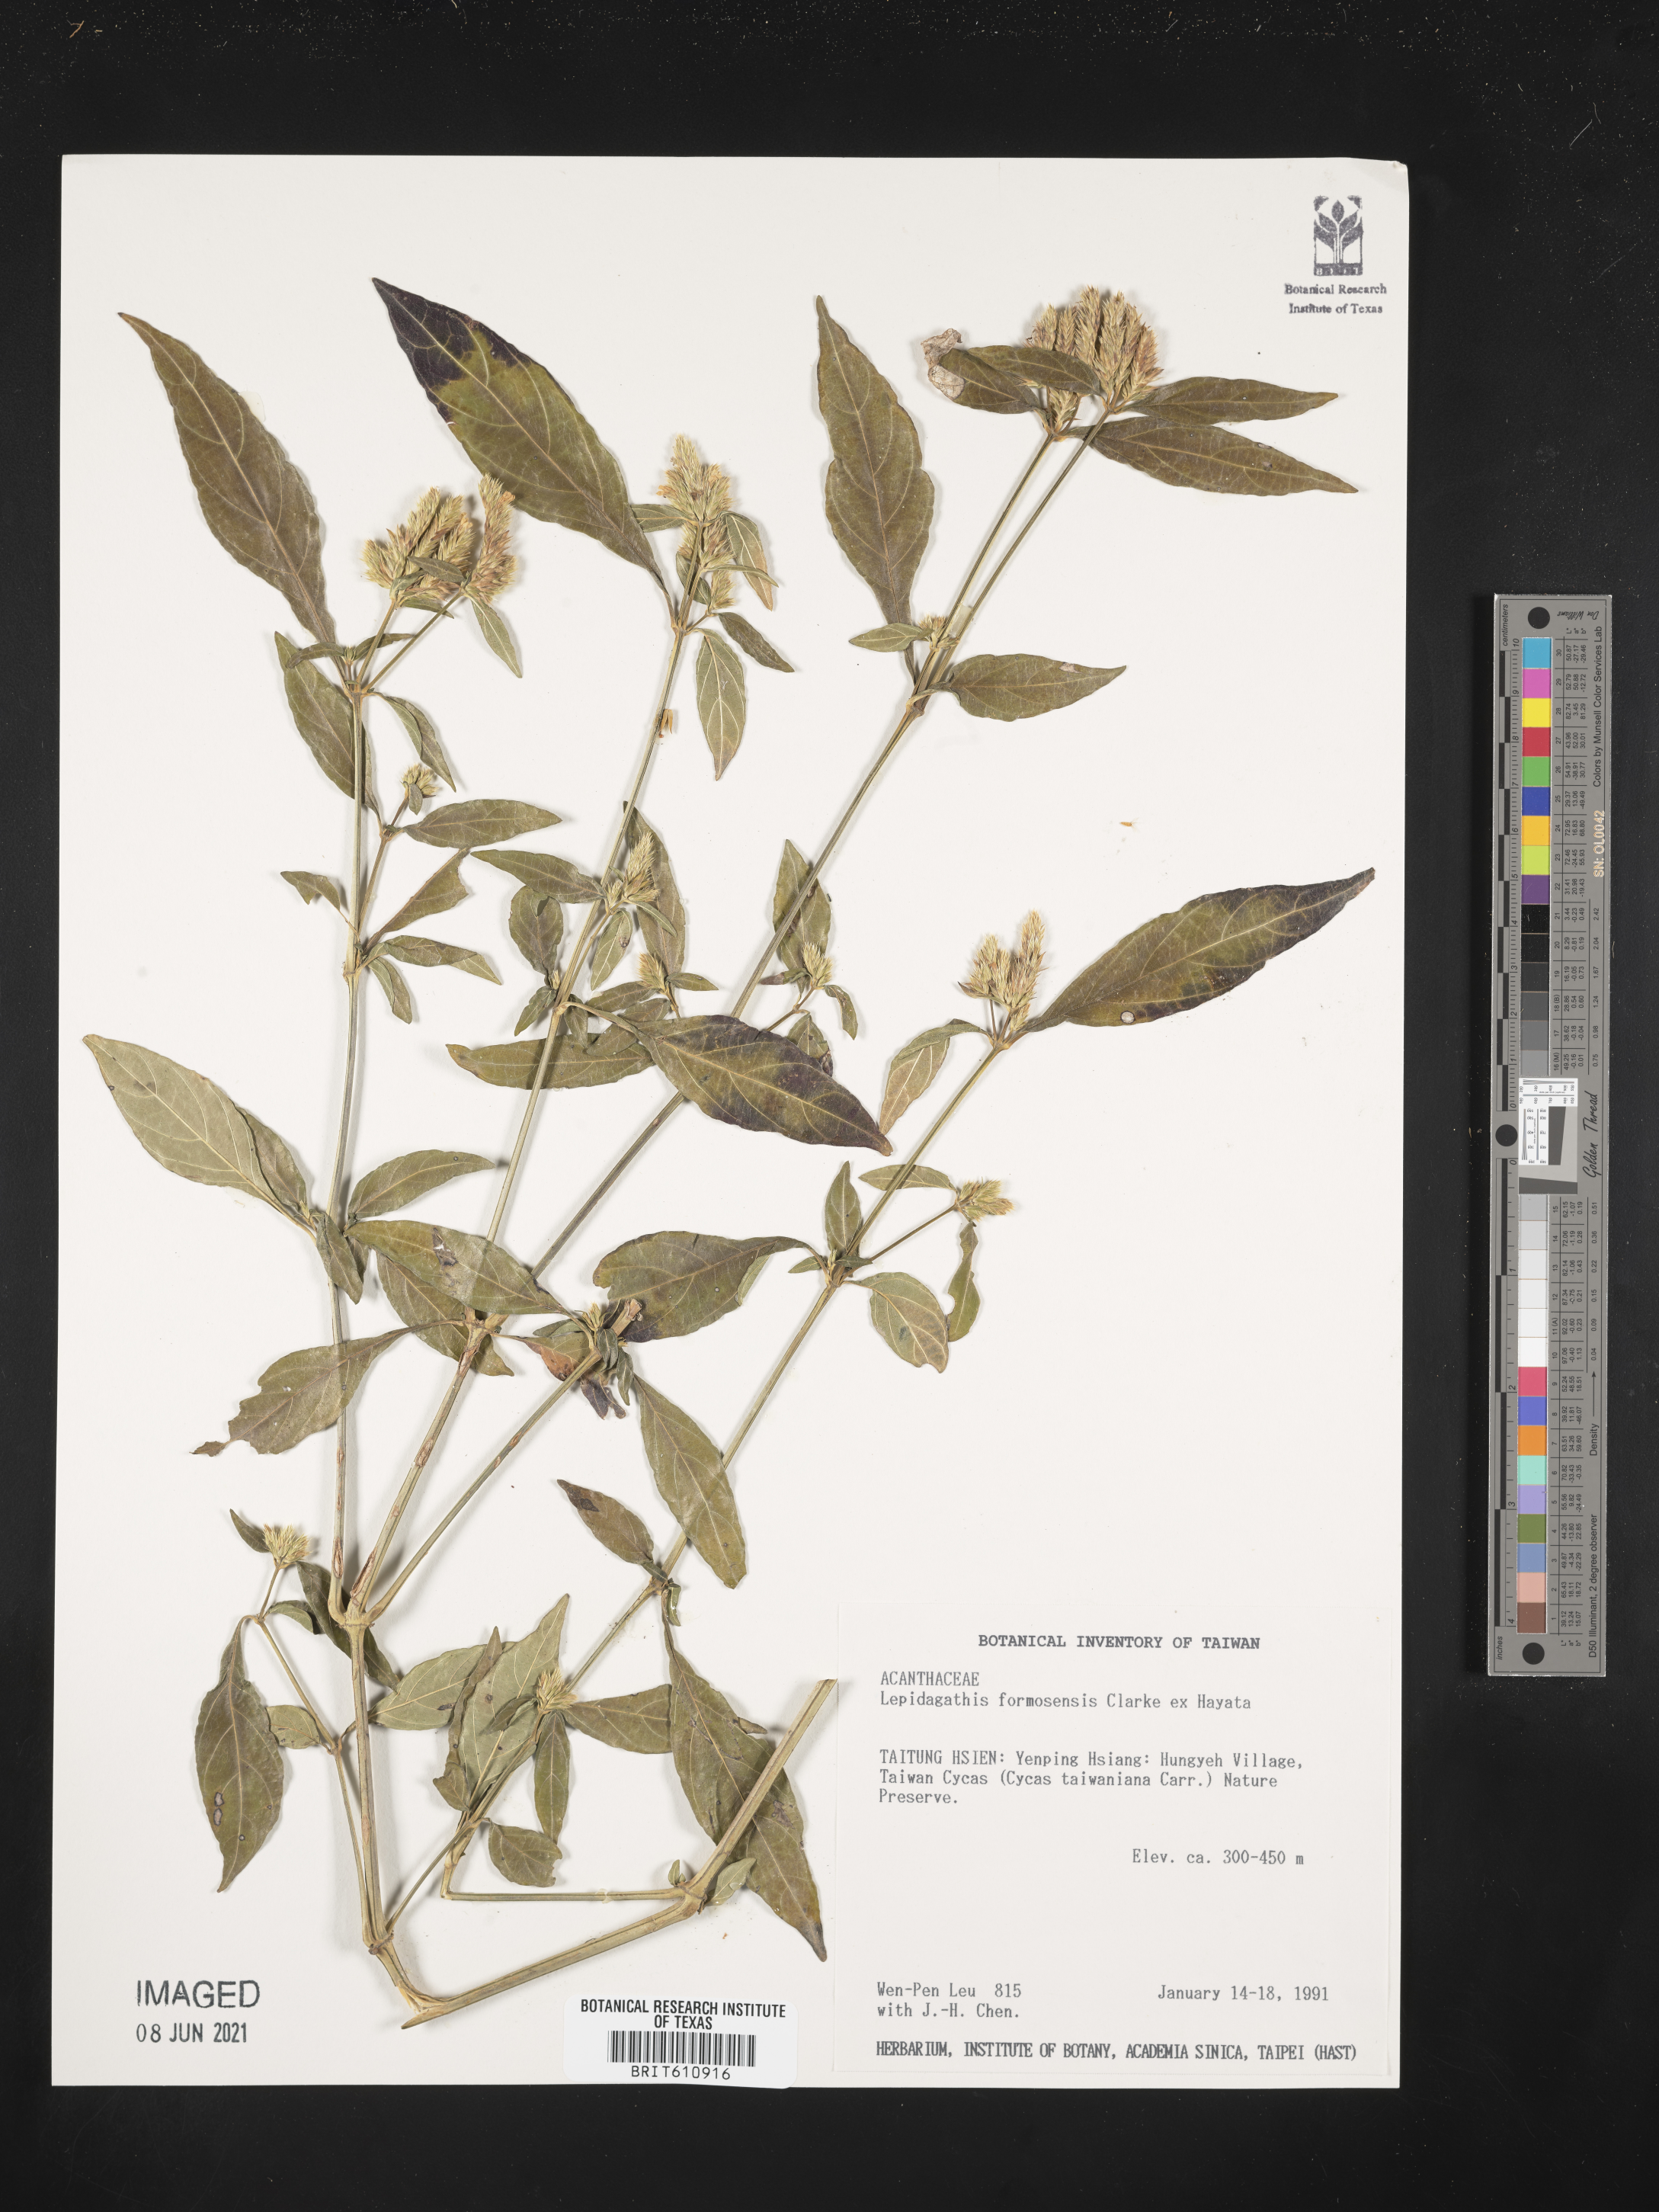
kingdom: Plantae
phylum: Tracheophyta
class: Magnoliopsida
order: Lamiales
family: Acanthaceae
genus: Lepidagathis
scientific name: Lepidagathis formosensis
